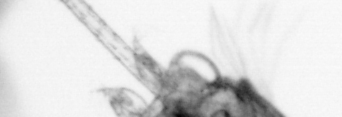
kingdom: Animalia
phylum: Arthropoda
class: Copepoda
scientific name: Copepoda
